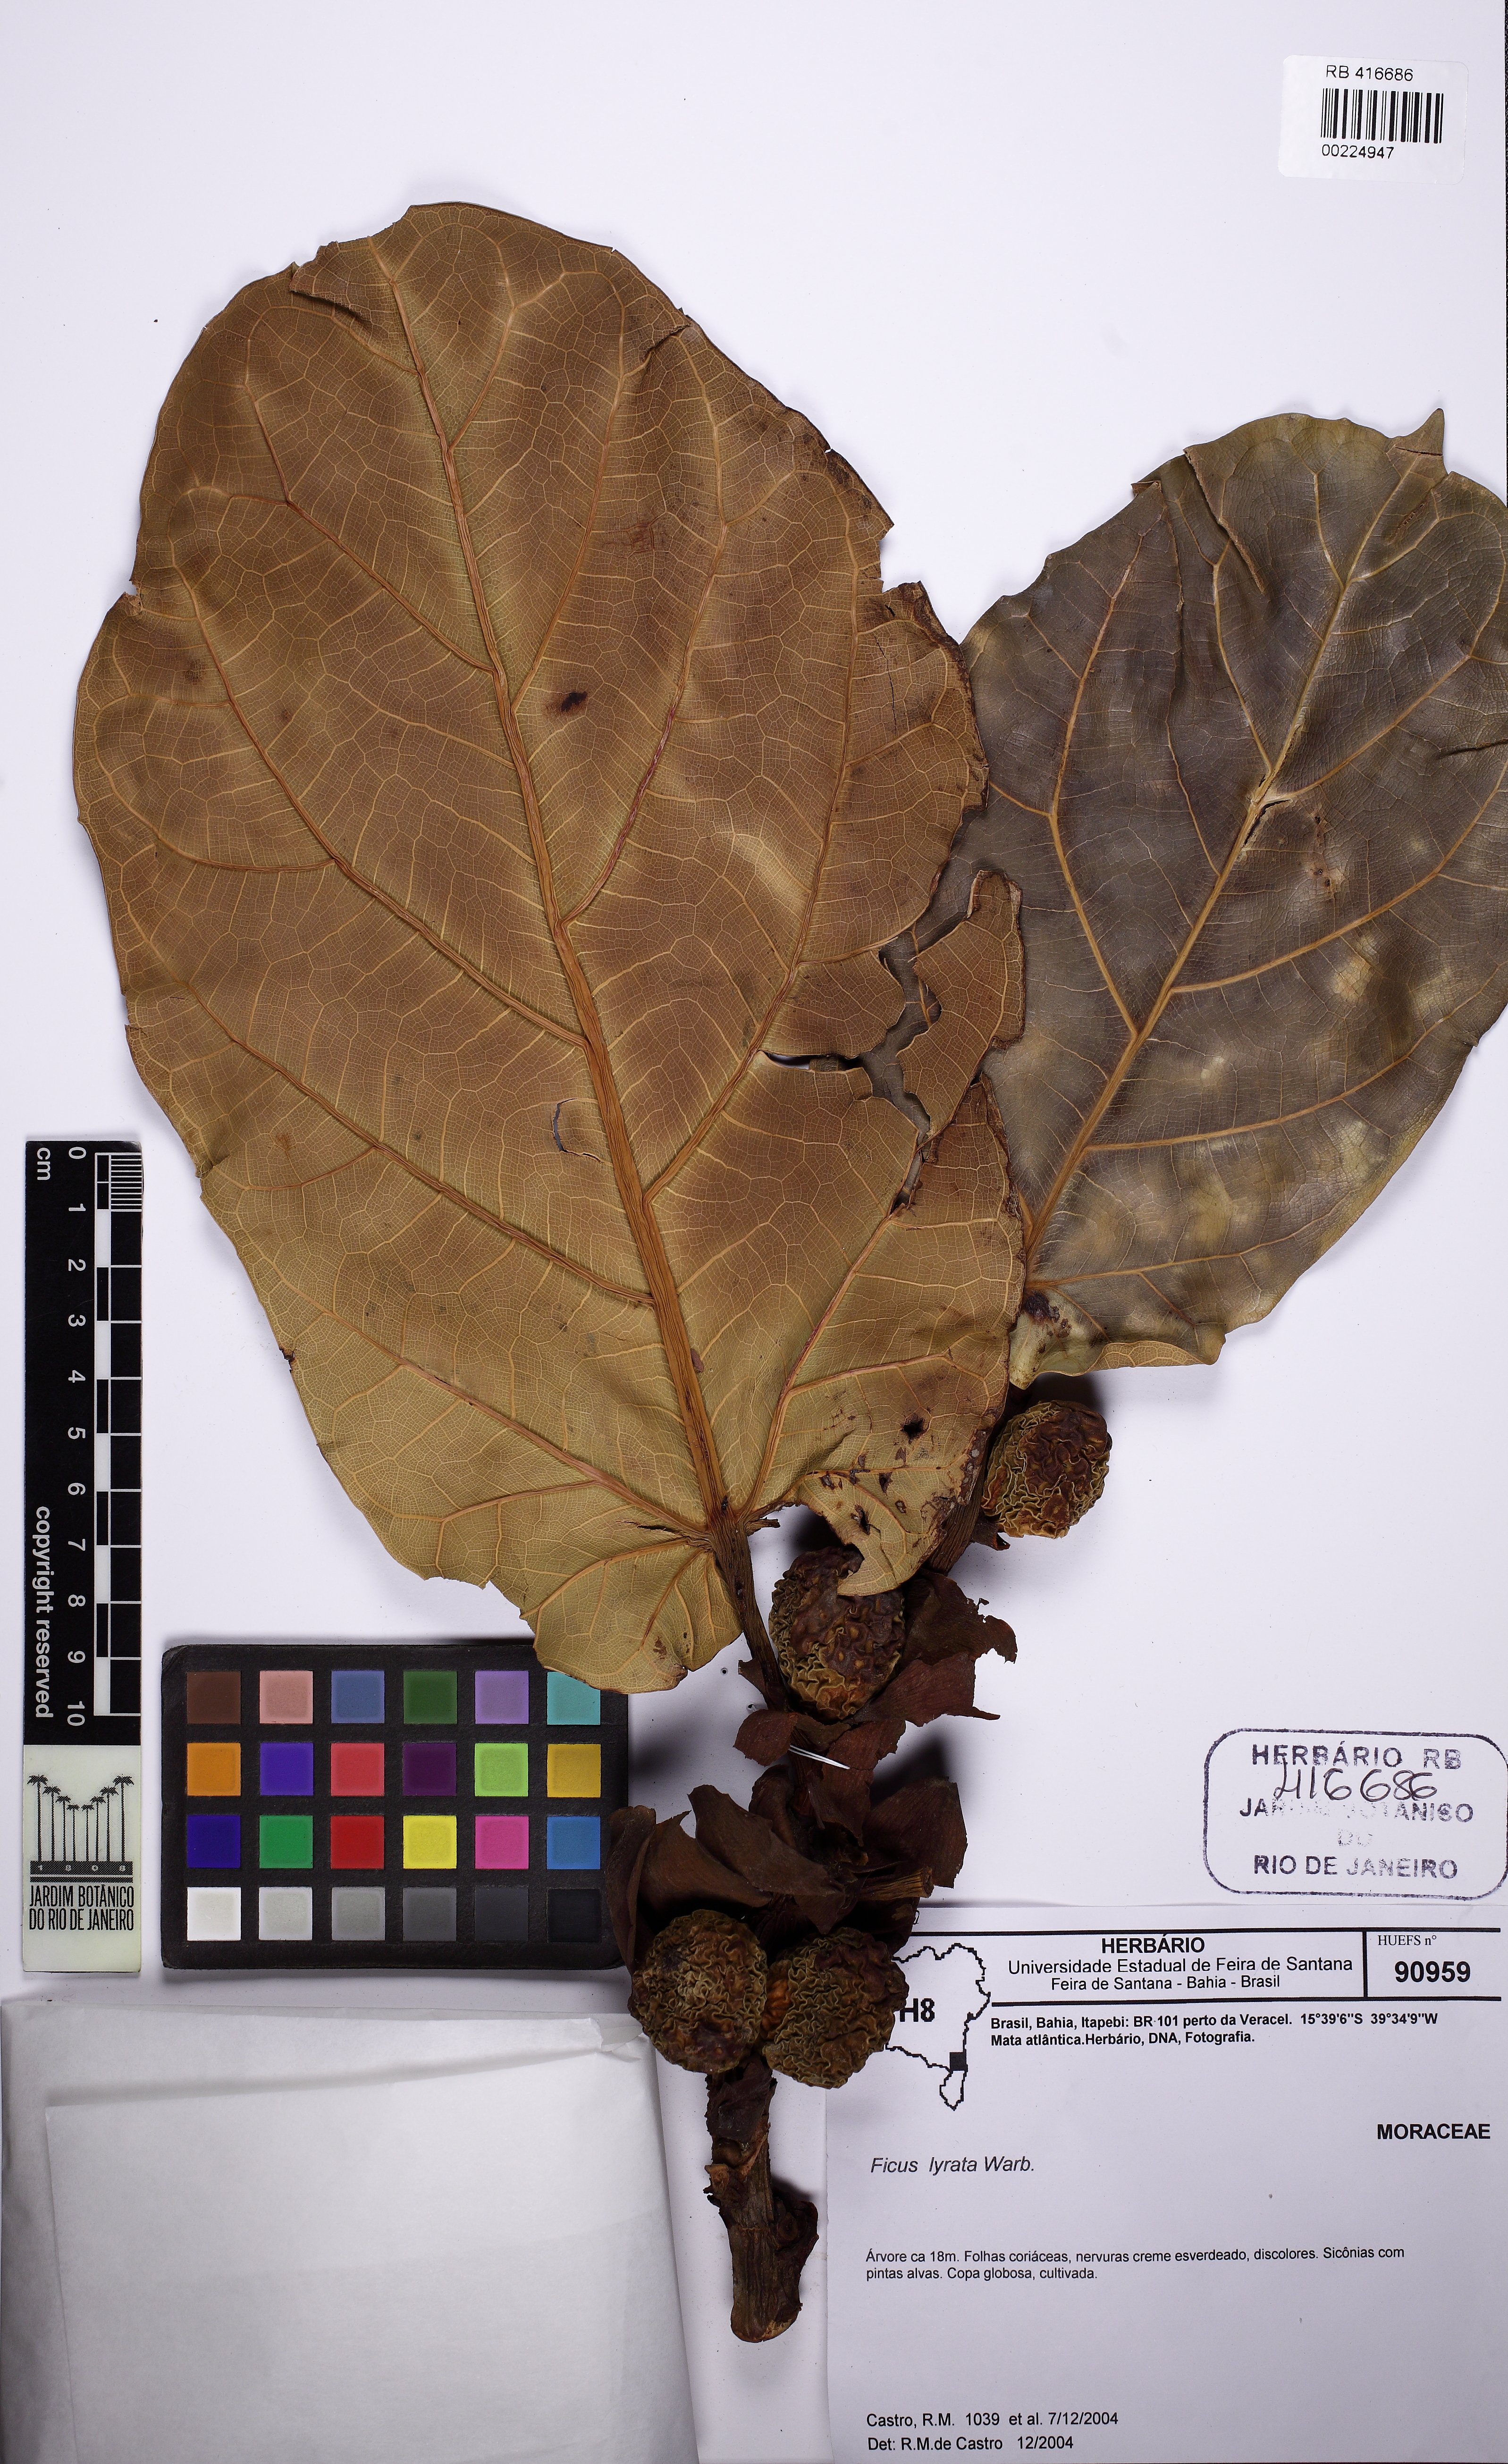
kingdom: Plantae
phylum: Tracheophyta
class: Magnoliopsida
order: Rosales
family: Moraceae
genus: Ficus
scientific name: Ficus lyrata
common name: Fiddle-leaf fig
